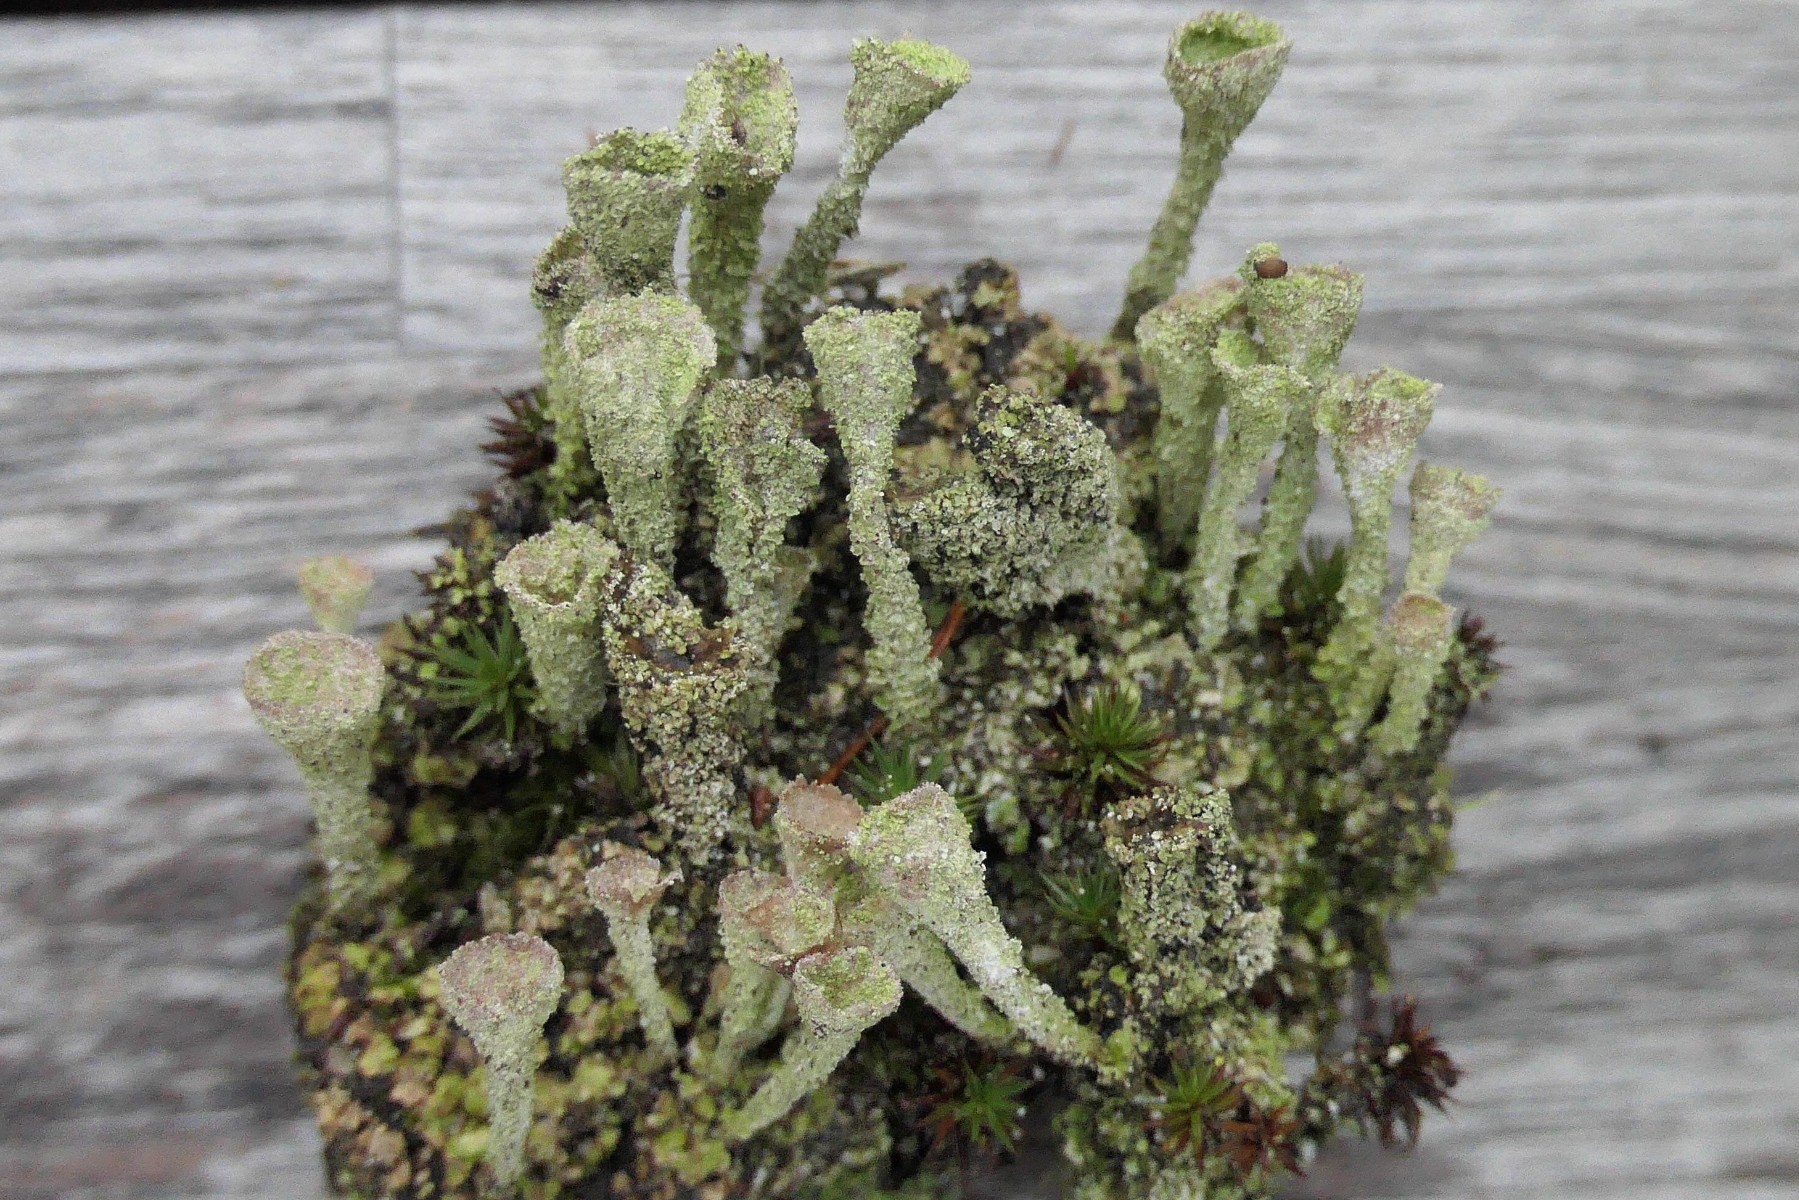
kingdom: Fungi
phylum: Ascomycota
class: Lecanoromycetes
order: Lecanorales
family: Cladoniaceae
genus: Cladonia
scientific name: Cladonia
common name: brungrøn bægerlav
